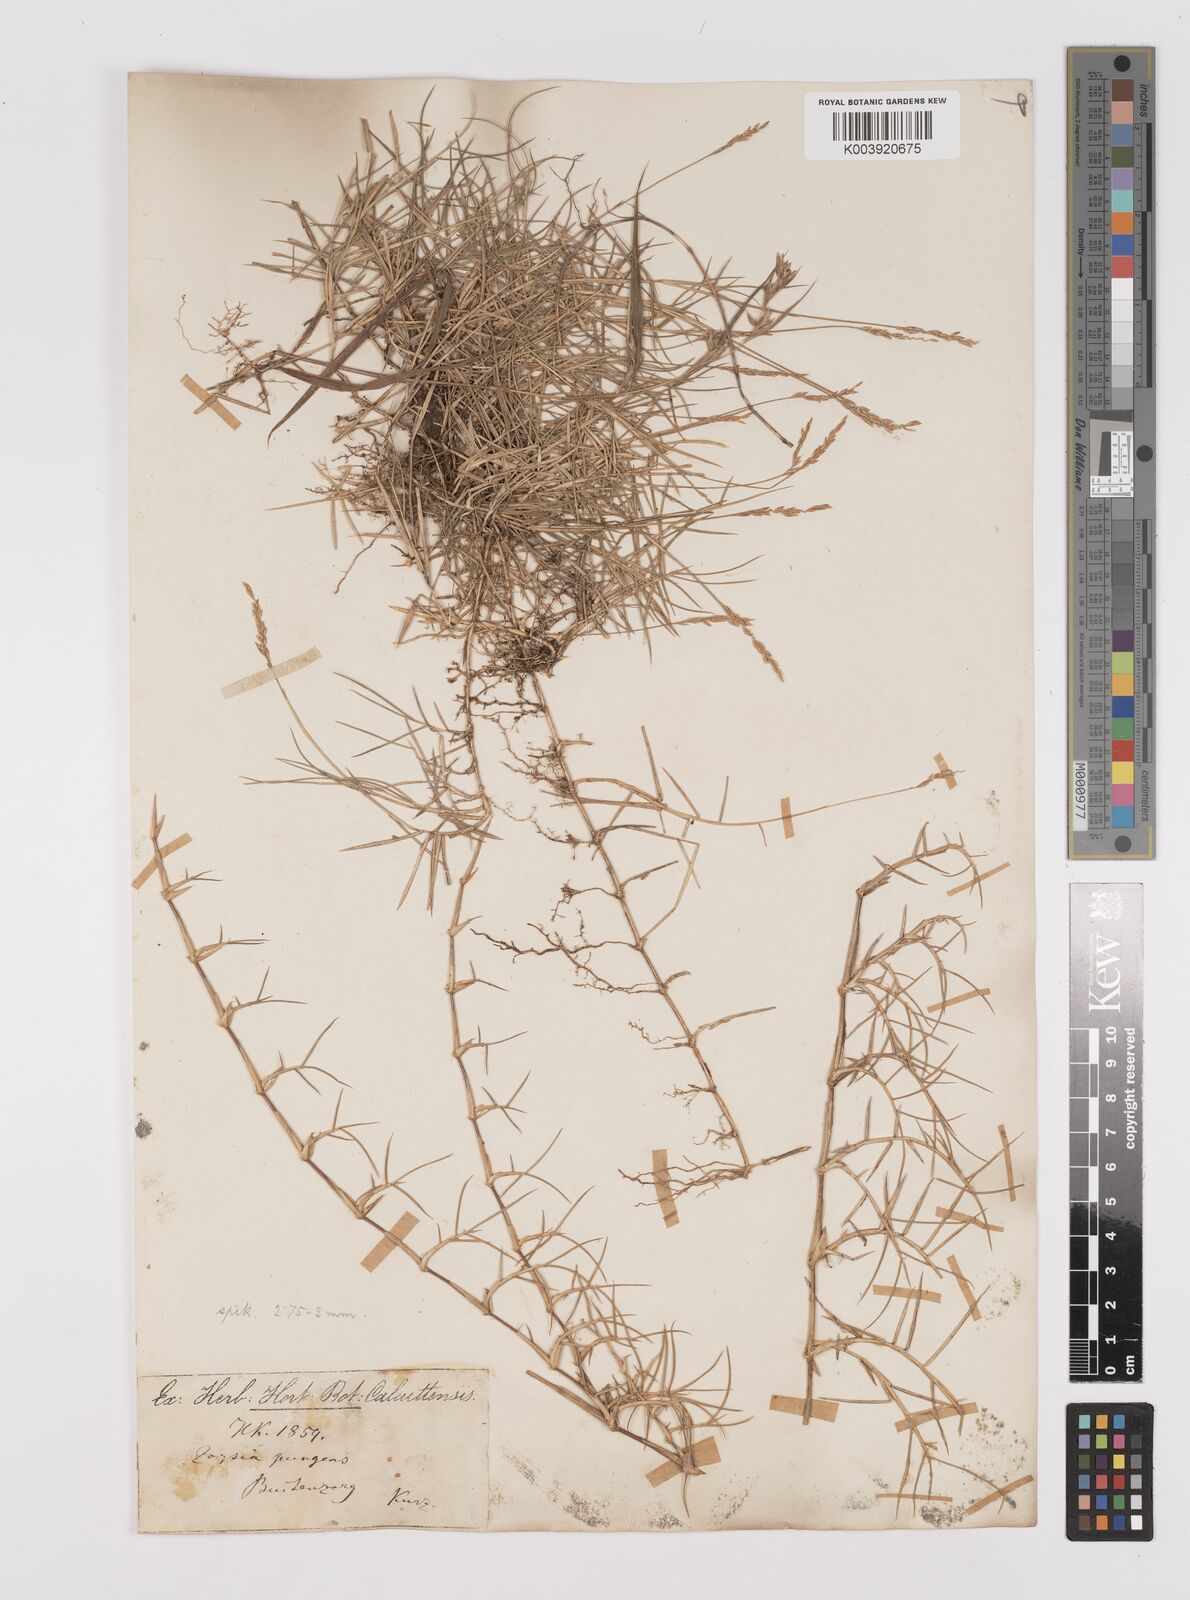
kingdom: Plantae
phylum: Tracheophyta
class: Liliopsida
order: Poales
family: Poaceae
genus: Zoysia
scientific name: Zoysia matrella
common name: Manila grass
